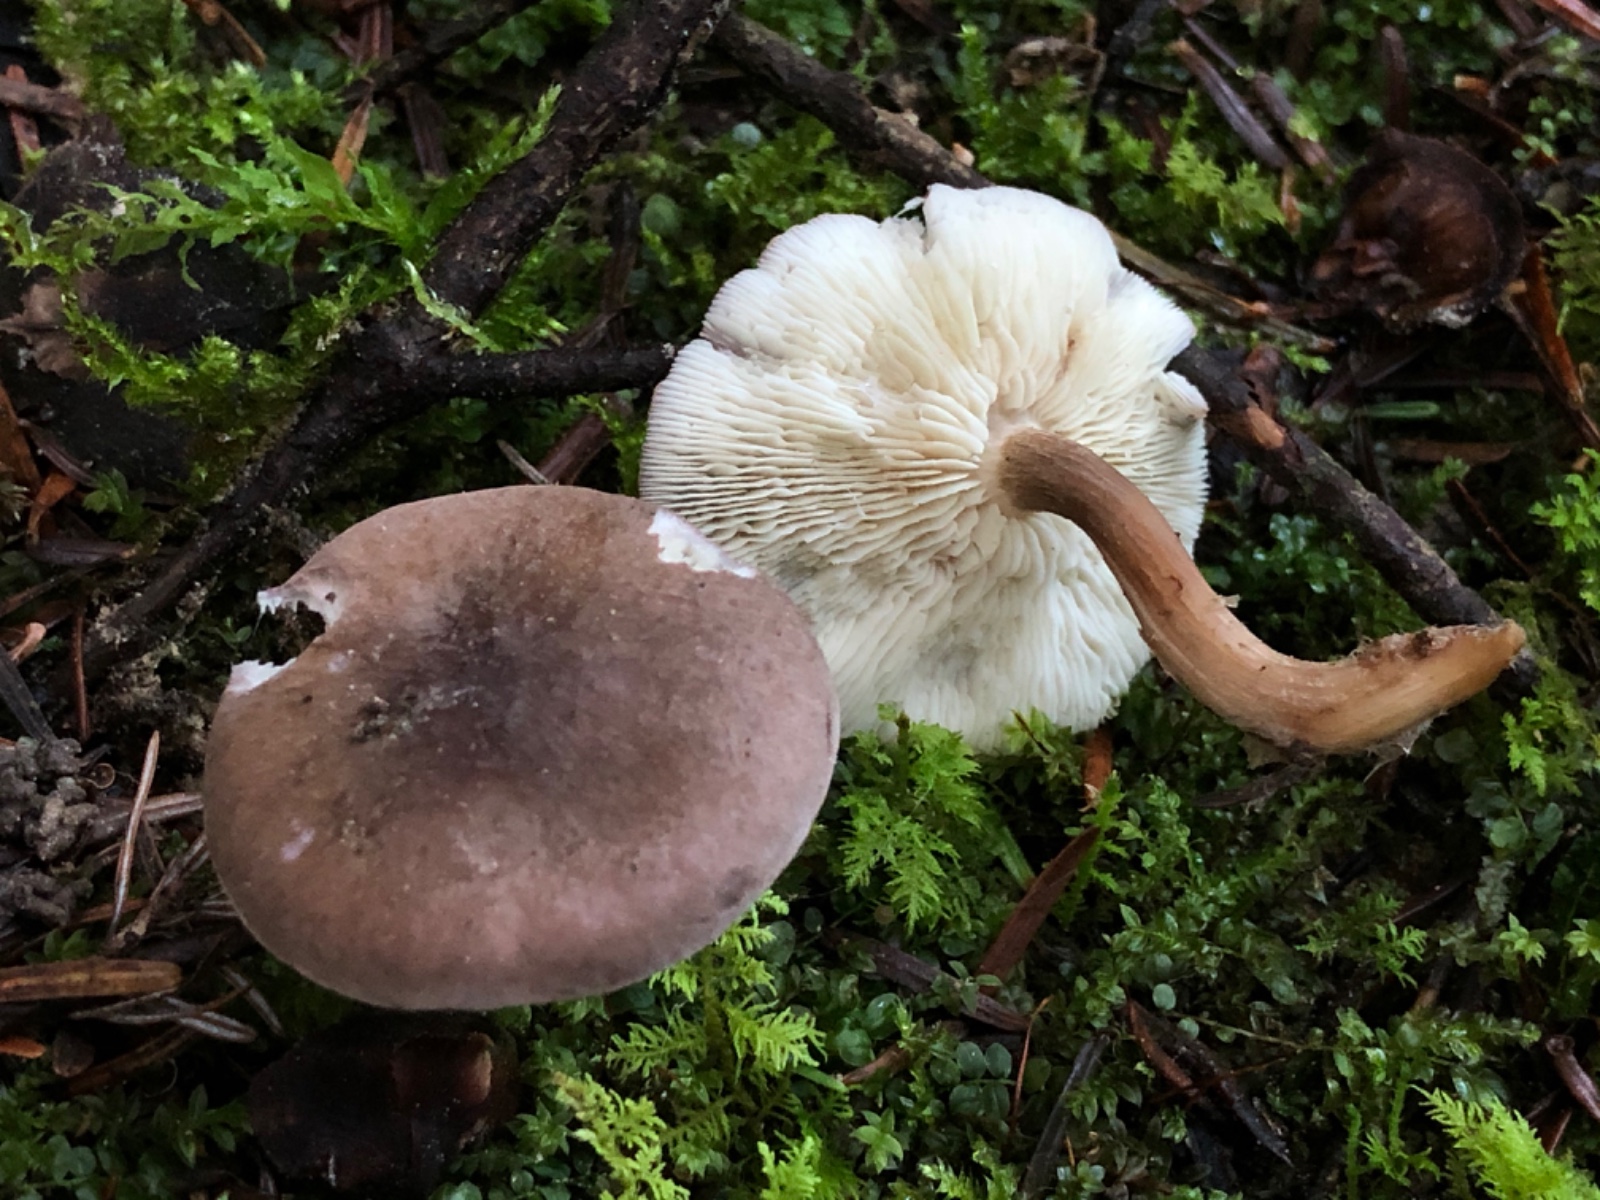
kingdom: Fungi
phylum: Basidiomycota
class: Agaricomycetes
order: Agaricales
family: Lyophyllaceae
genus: Calocybe
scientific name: Calocybe obscurissima
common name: mørk fagerhat
